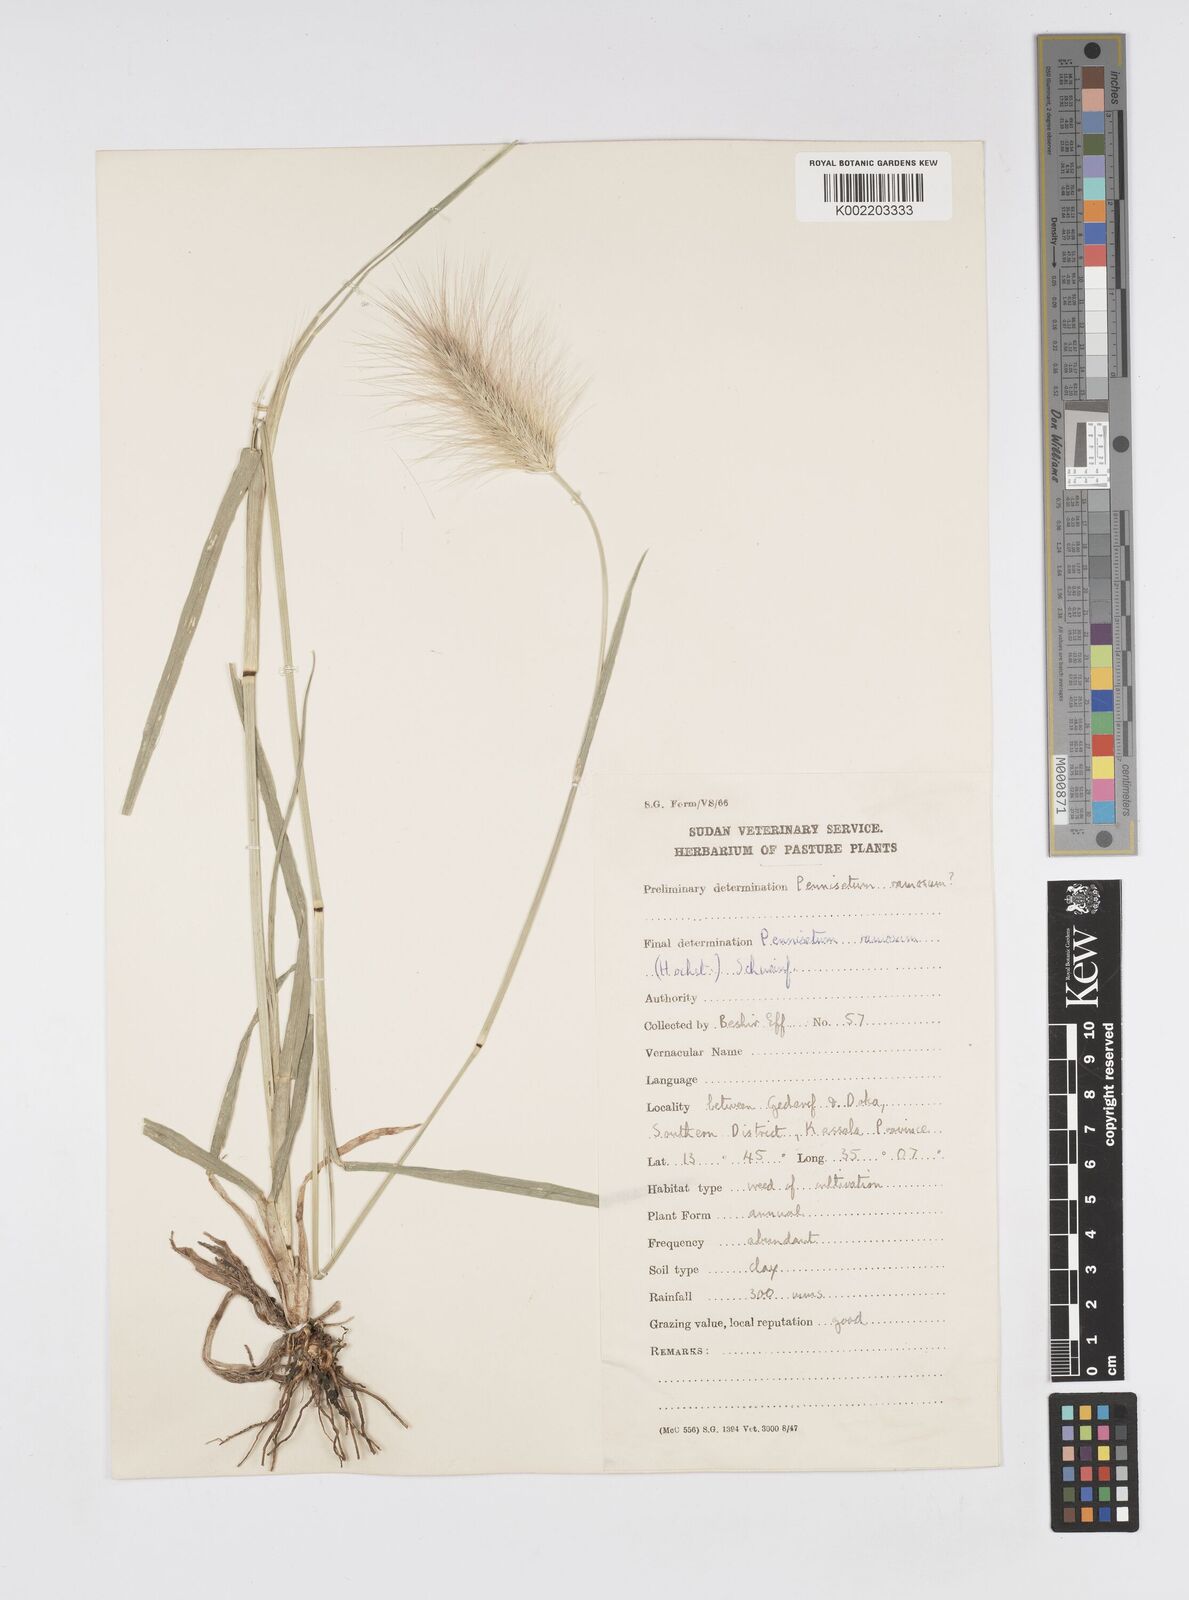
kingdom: Plantae
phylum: Tracheophyta
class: Liliopsida
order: Poales
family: Poaceae
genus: Cenchrus
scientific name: Cenchrus ramosus
